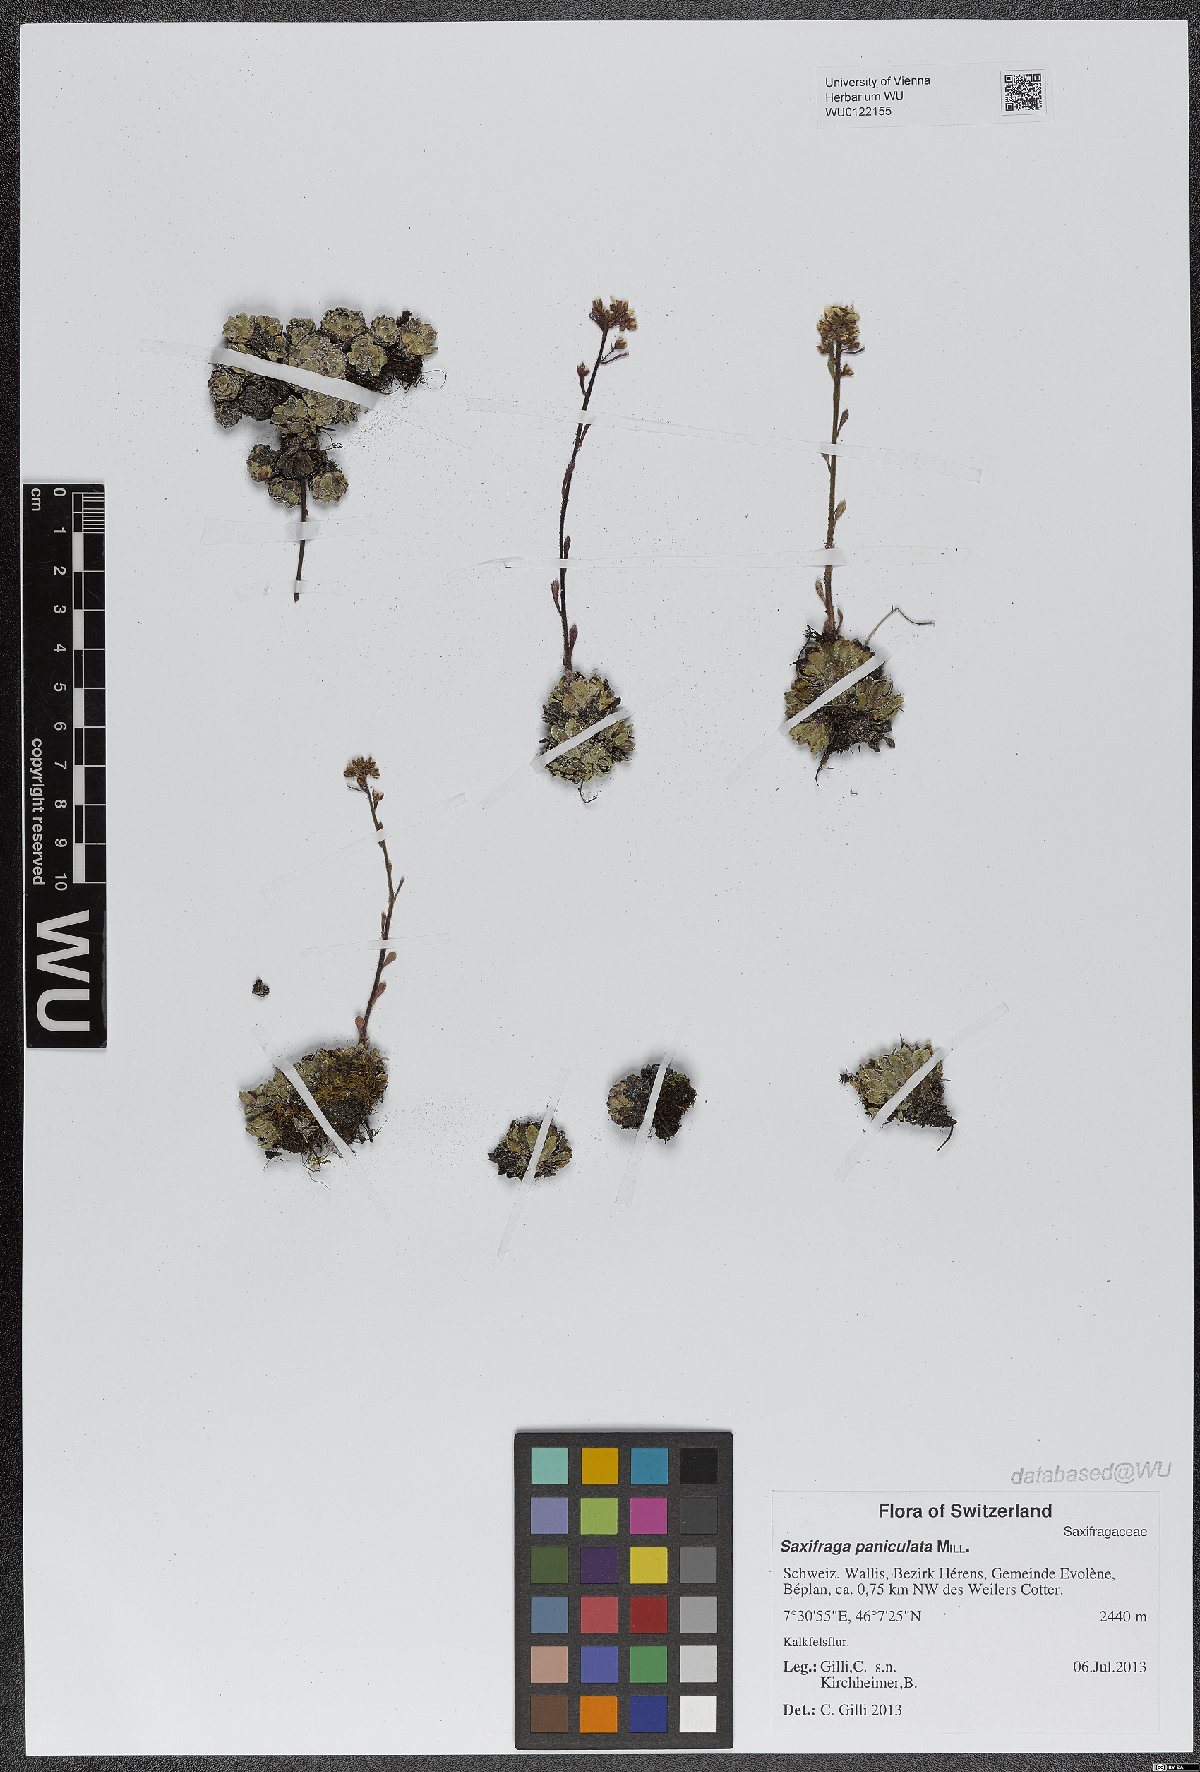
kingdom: Plantae
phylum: Tracheophyta
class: Magnoliopsida
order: Saxifragales
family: Saxifragaceae
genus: Saxifraga
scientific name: Saxifraga paniculata
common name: Livelong saxifrage
